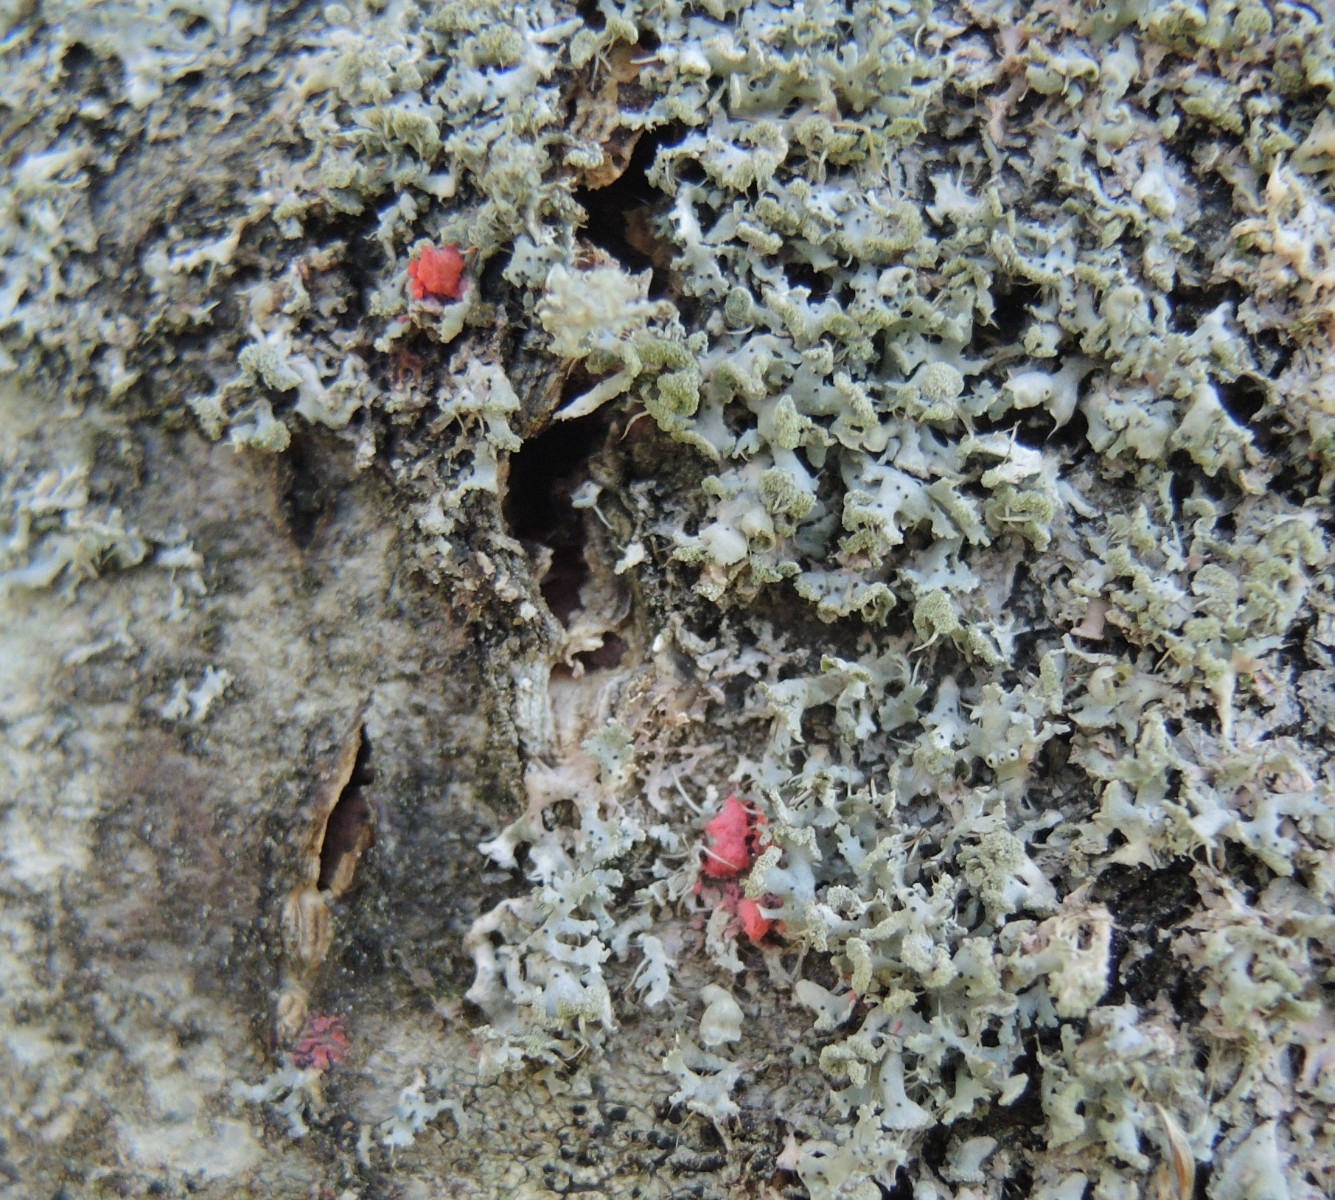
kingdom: Fungi
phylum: Ascomycota
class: Sordariomycetes
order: Hypocreales
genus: Illosporiopsis
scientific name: Illosporiopsis christiansenii
